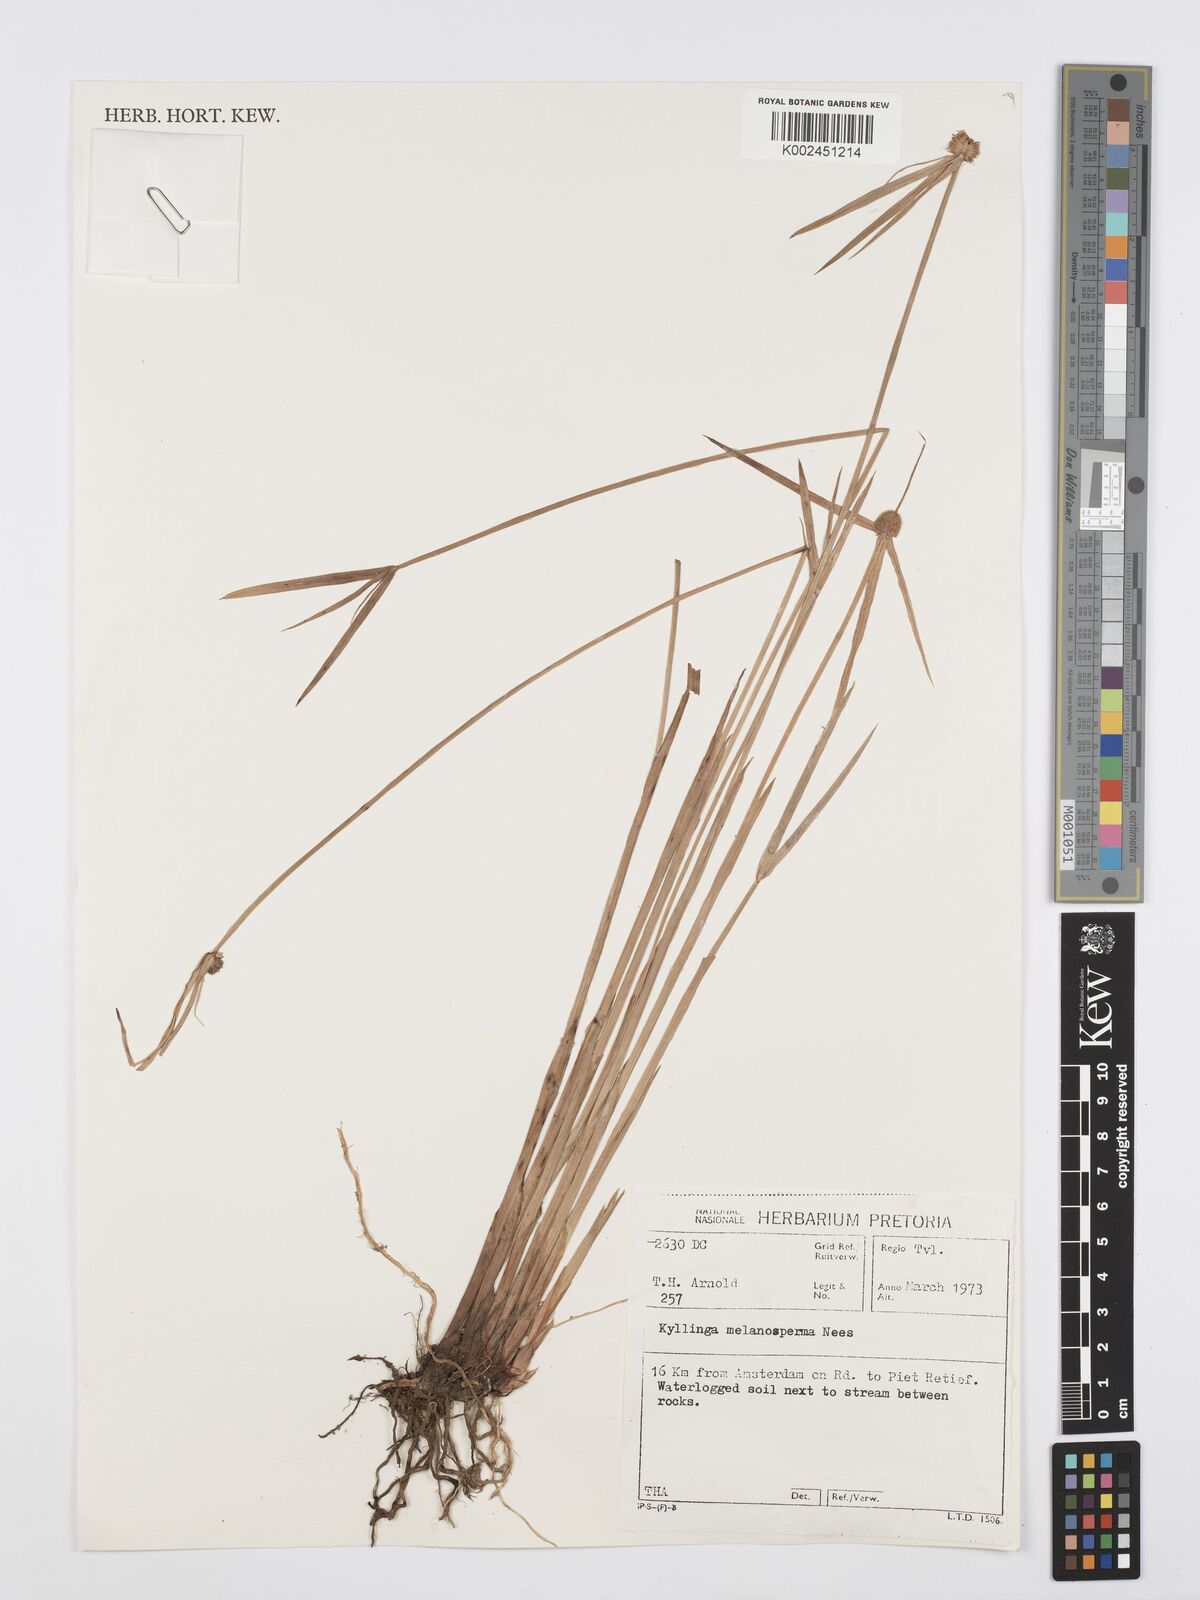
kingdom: Plantae
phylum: Tracheophyta
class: Liliopsida
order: Poales
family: Cyperaceae
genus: Cyperus
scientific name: Cyperus melanospermus
